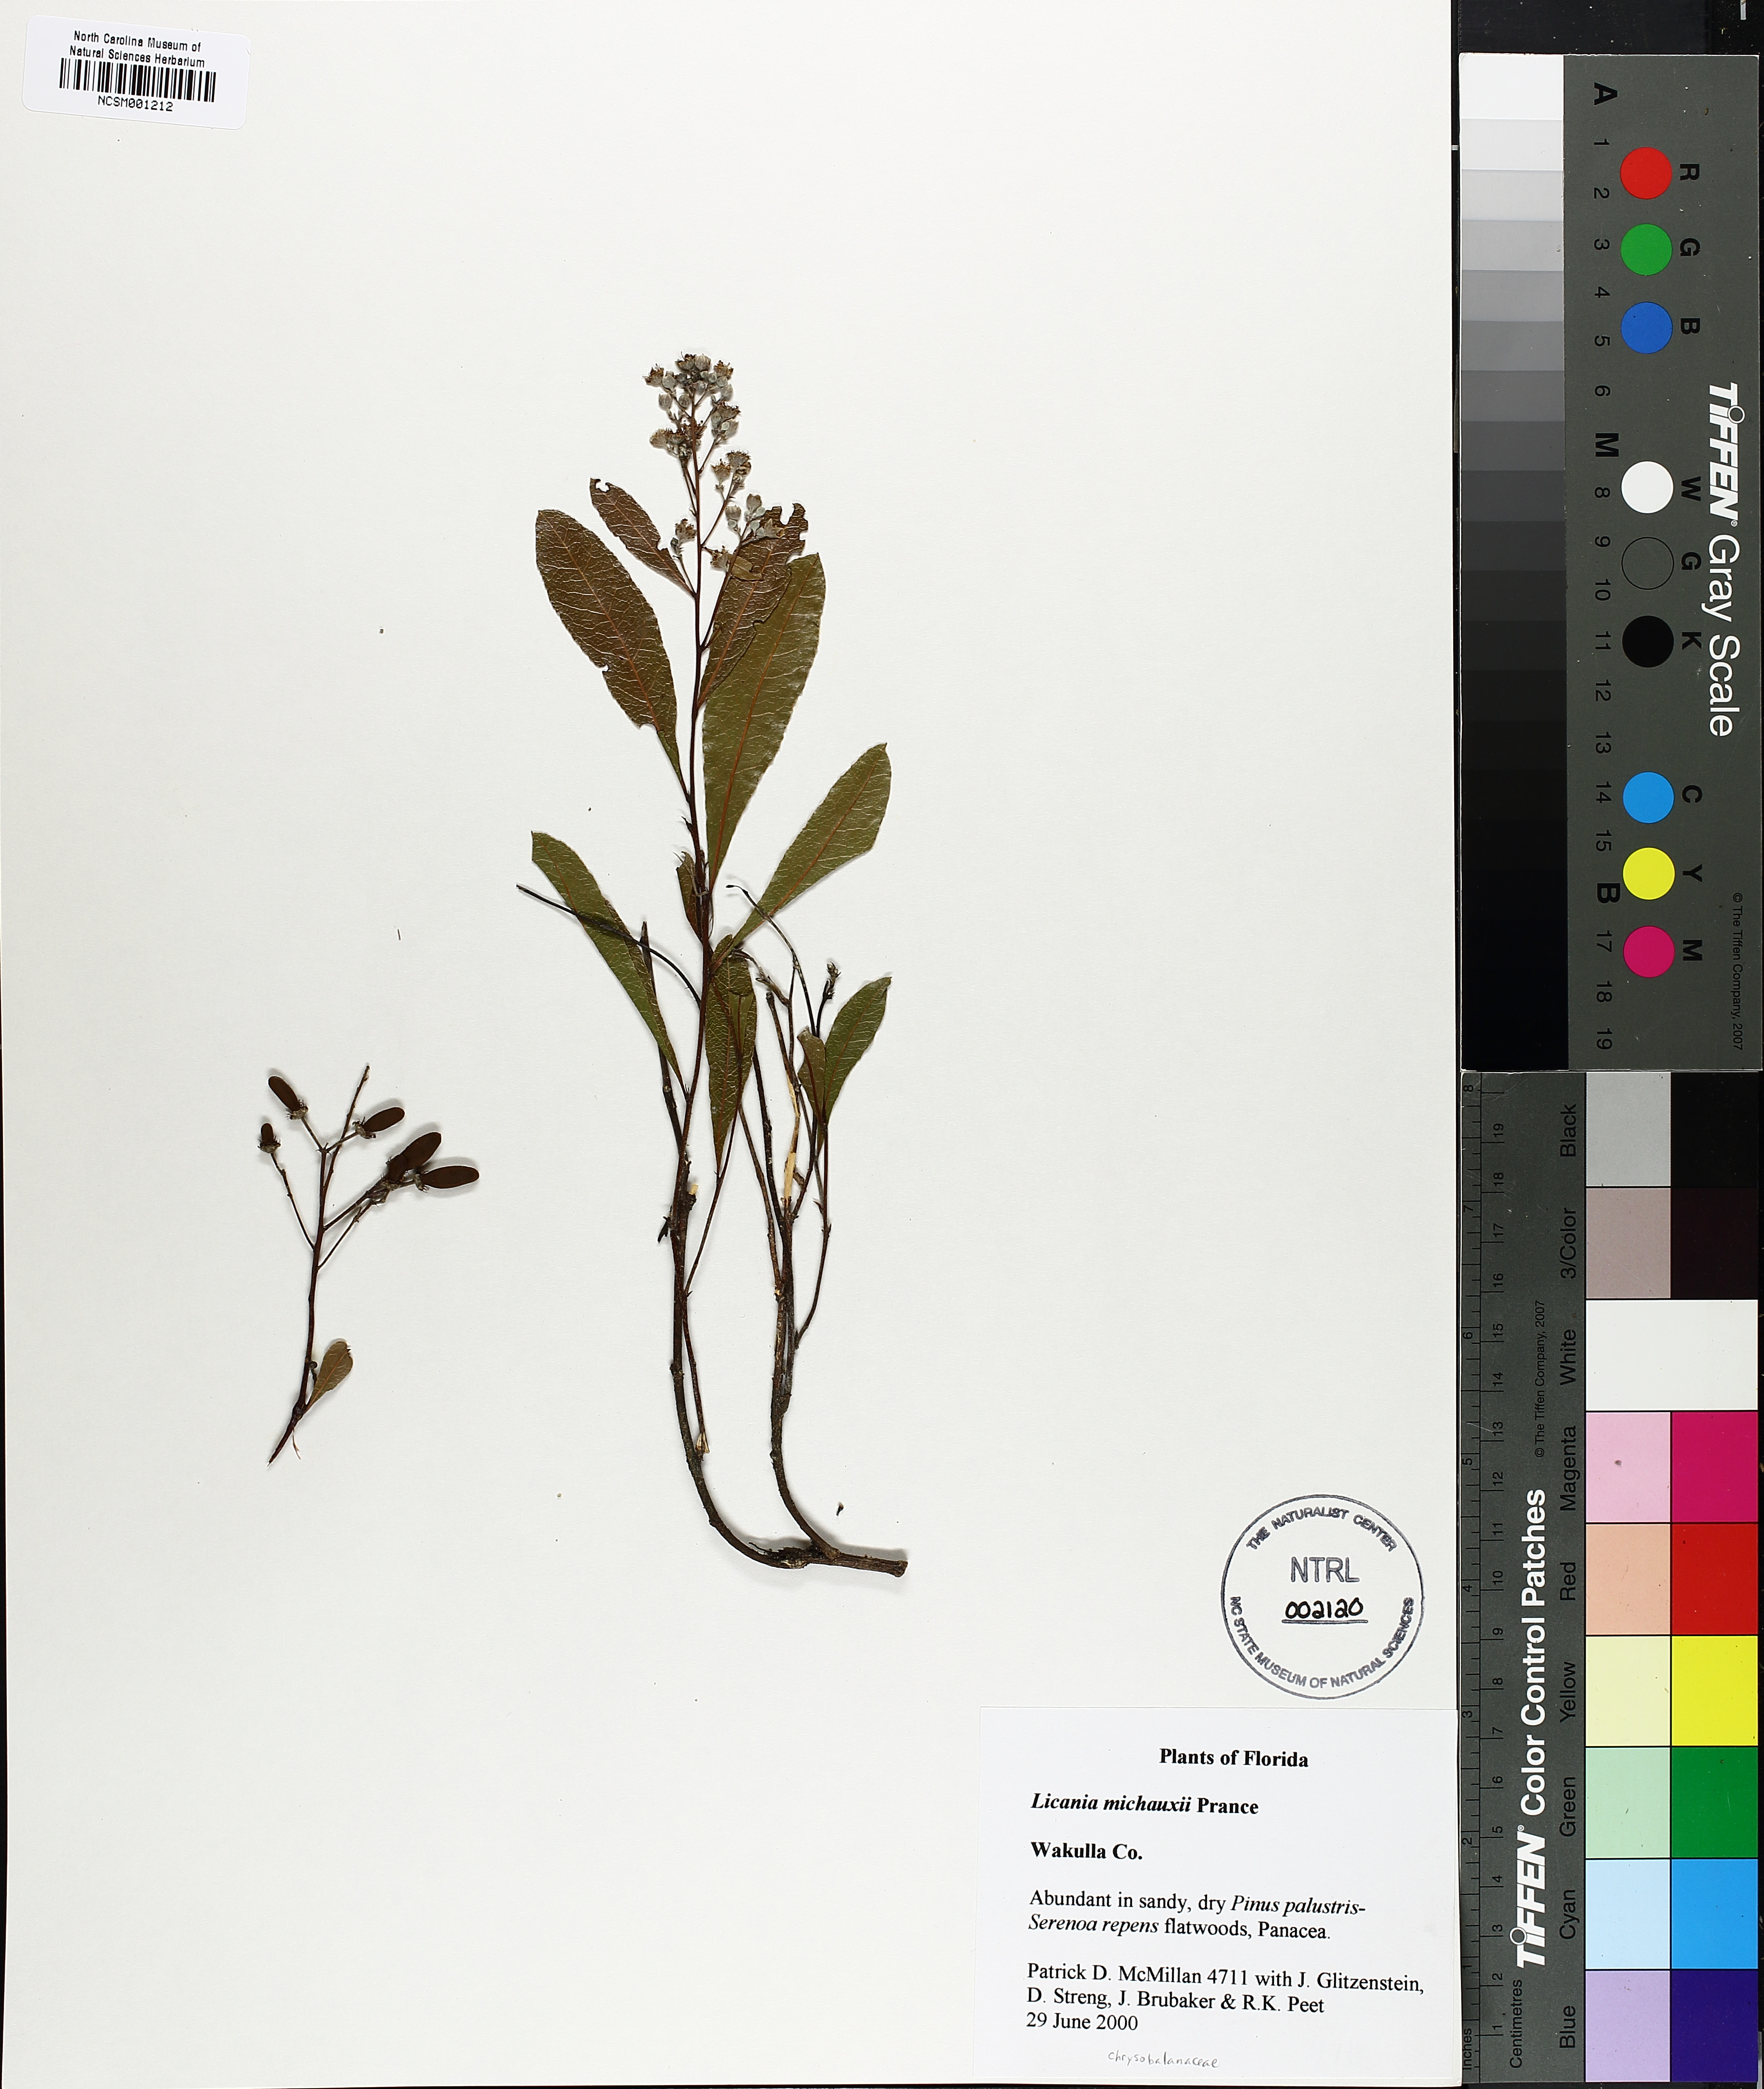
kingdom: Plantae
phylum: Tracheophyta
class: Magnoliopsida
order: Malpighiales
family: Chrysobalanaceae
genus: Geobalanus
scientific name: Geobalanus oblongifolius
